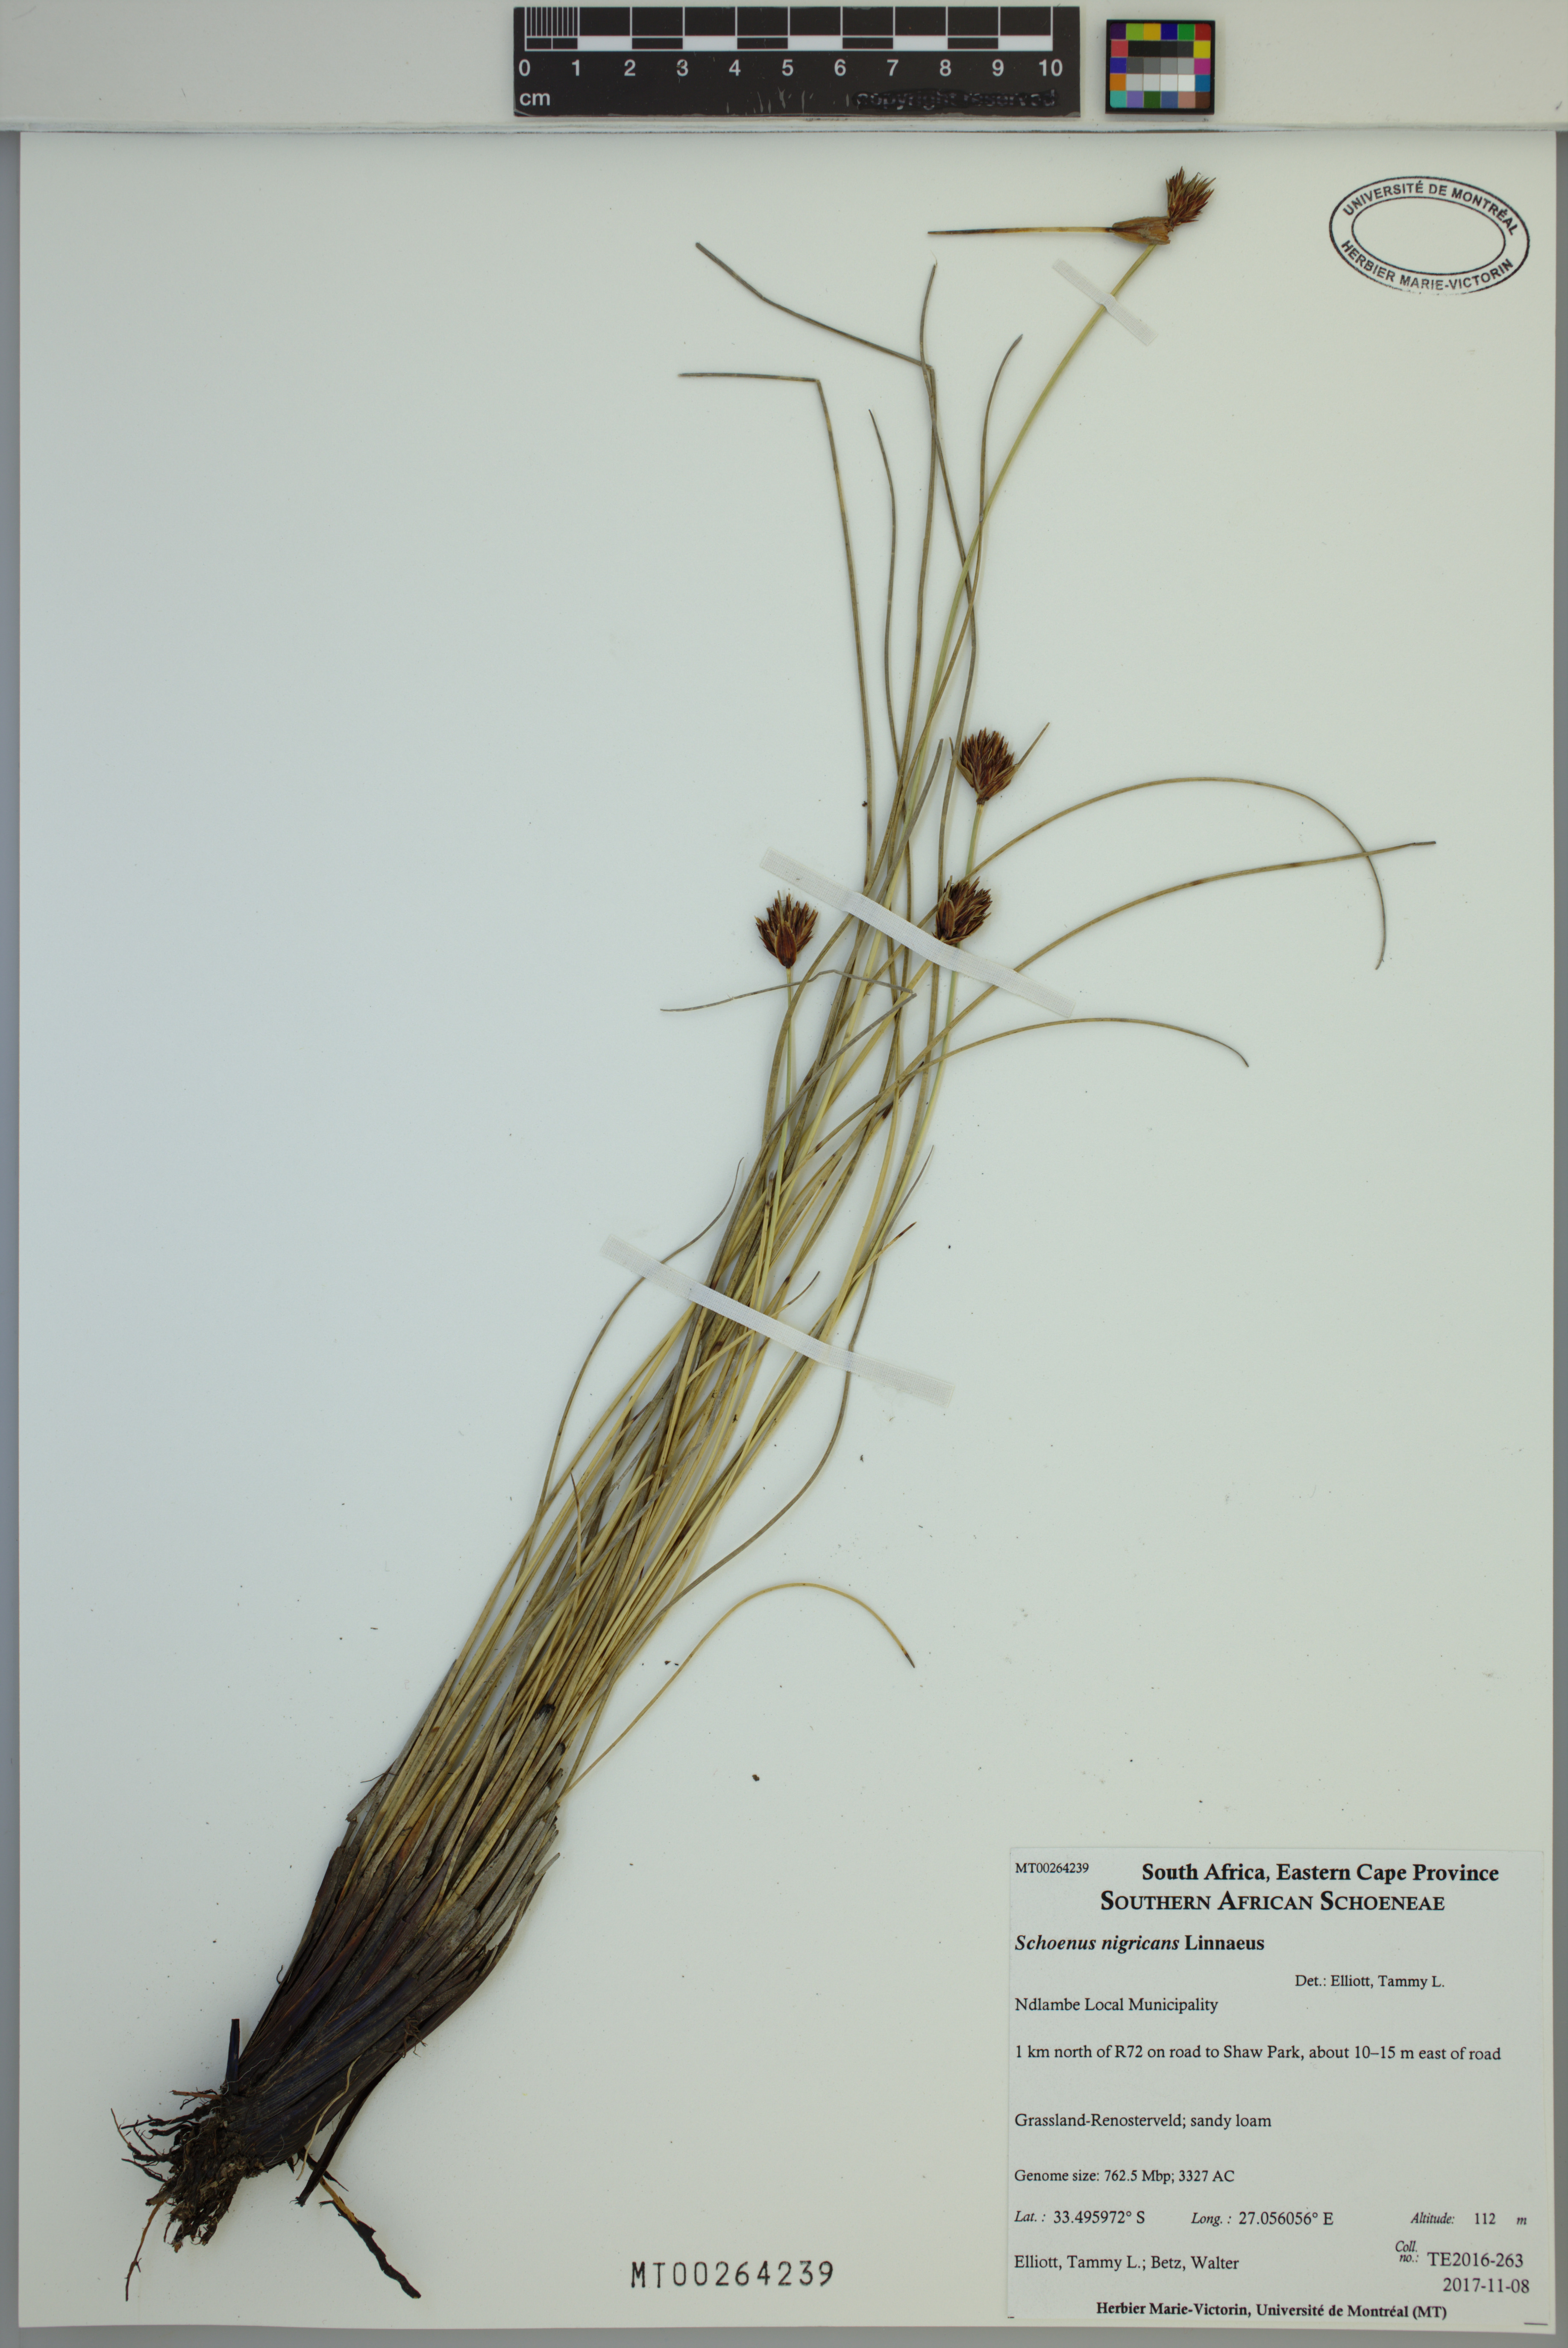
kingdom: Plantae
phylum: Tracheophyta
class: Liliopsida
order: Poales
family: Cyperaceae
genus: Schoenus
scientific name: Schoenus nigricans
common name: Black bog-rush
